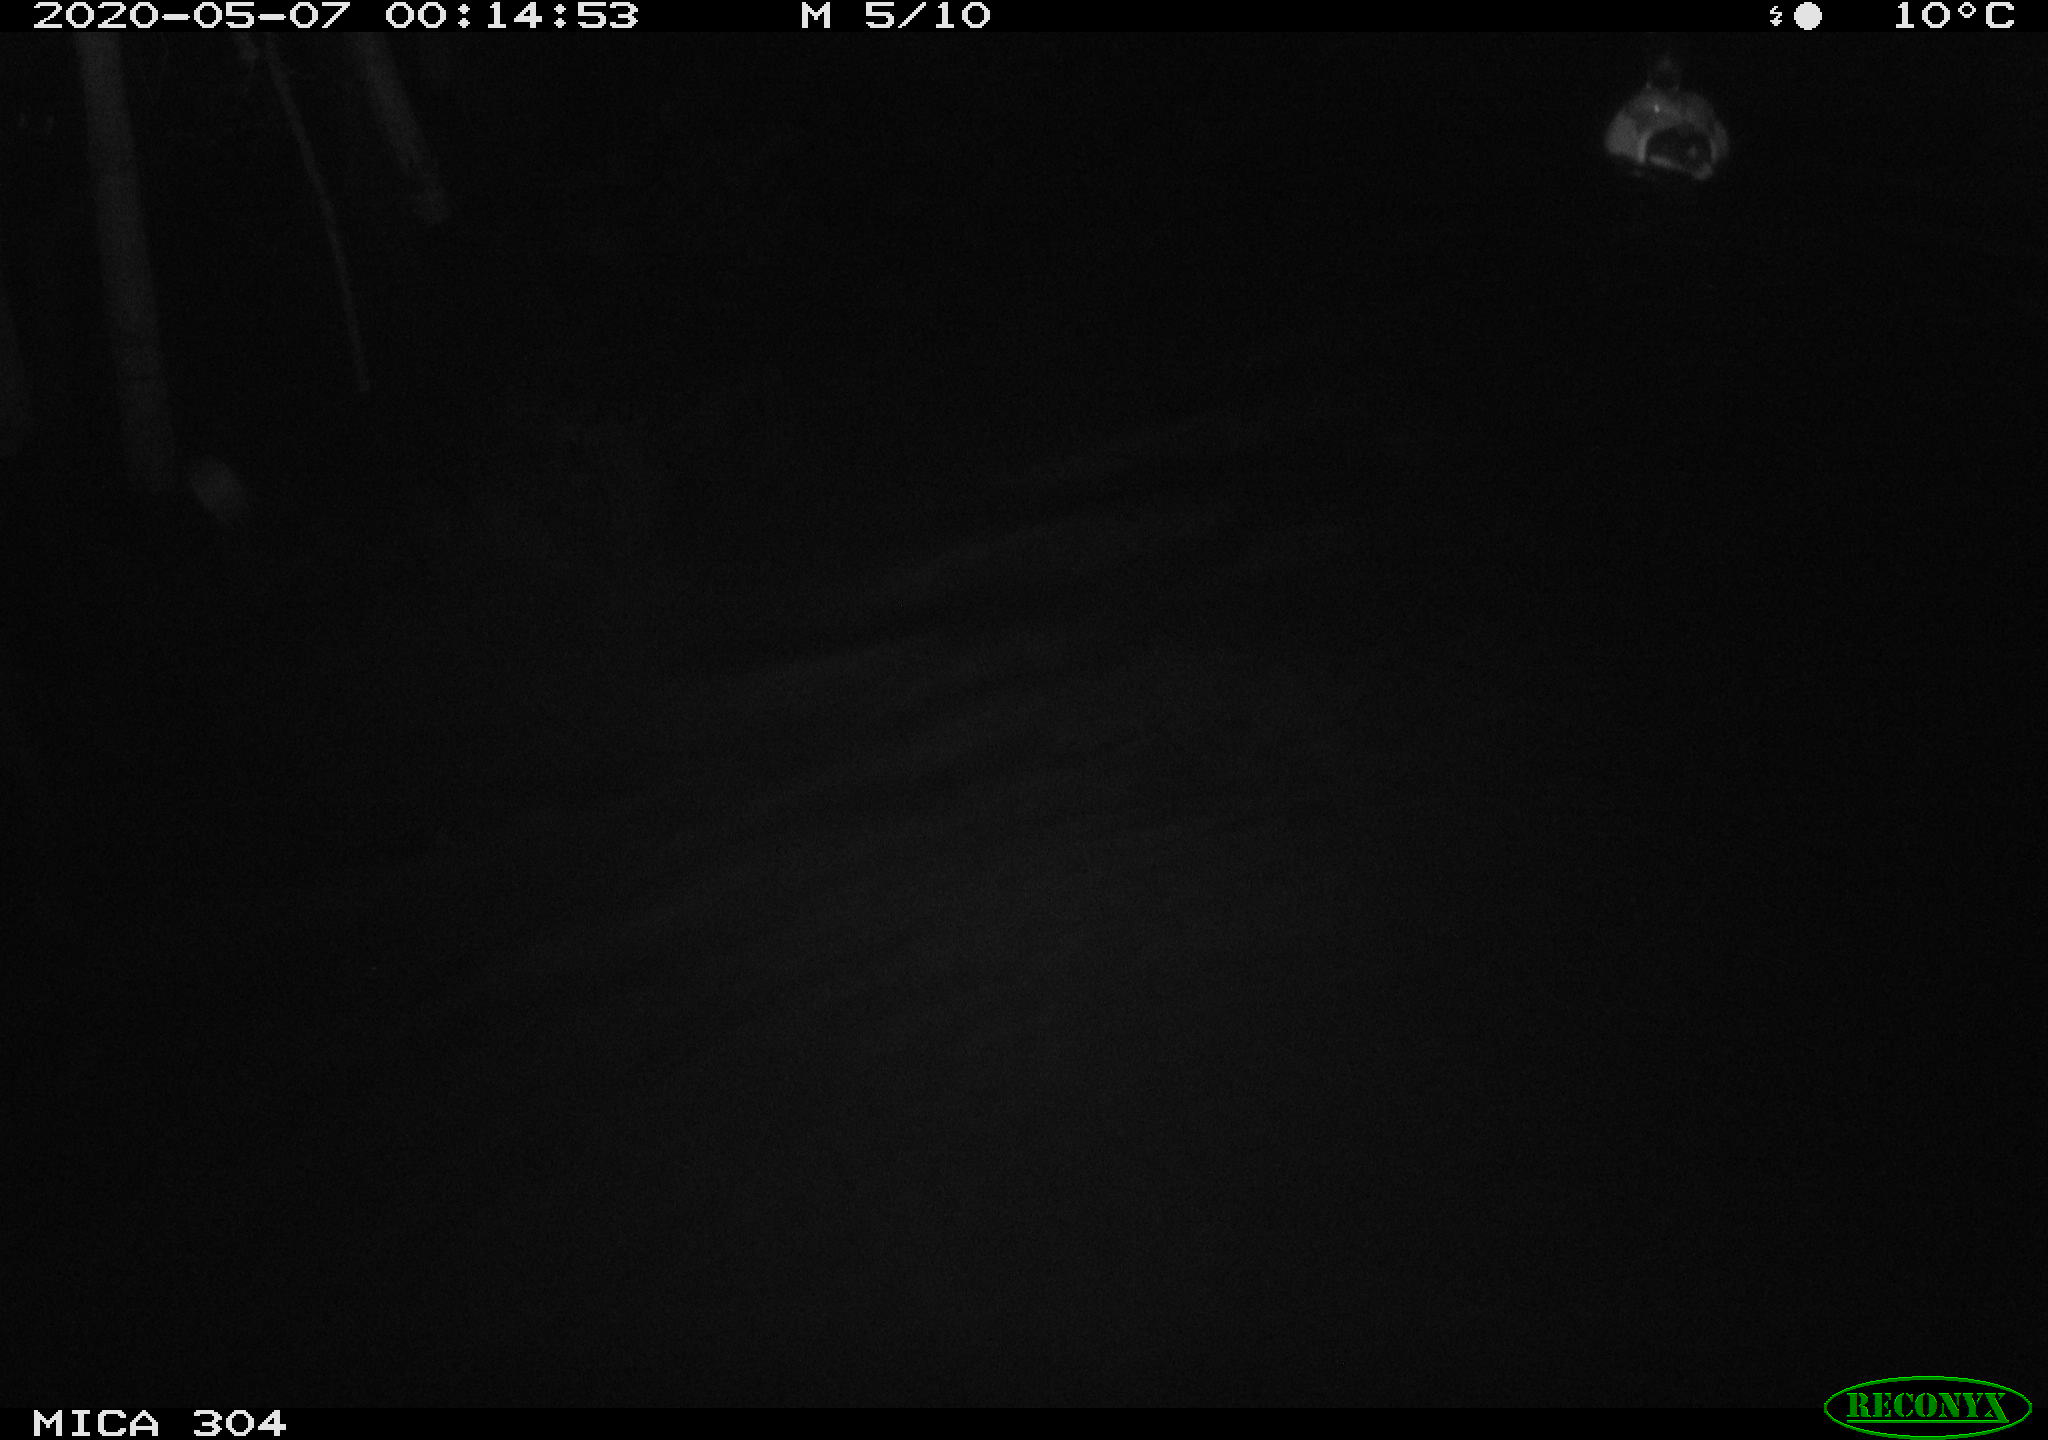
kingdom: Animalia
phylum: Chordata
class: Aves
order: Anseriformes
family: Anatidae
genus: Anas
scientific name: Anas platyrhynchos
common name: Mallard
